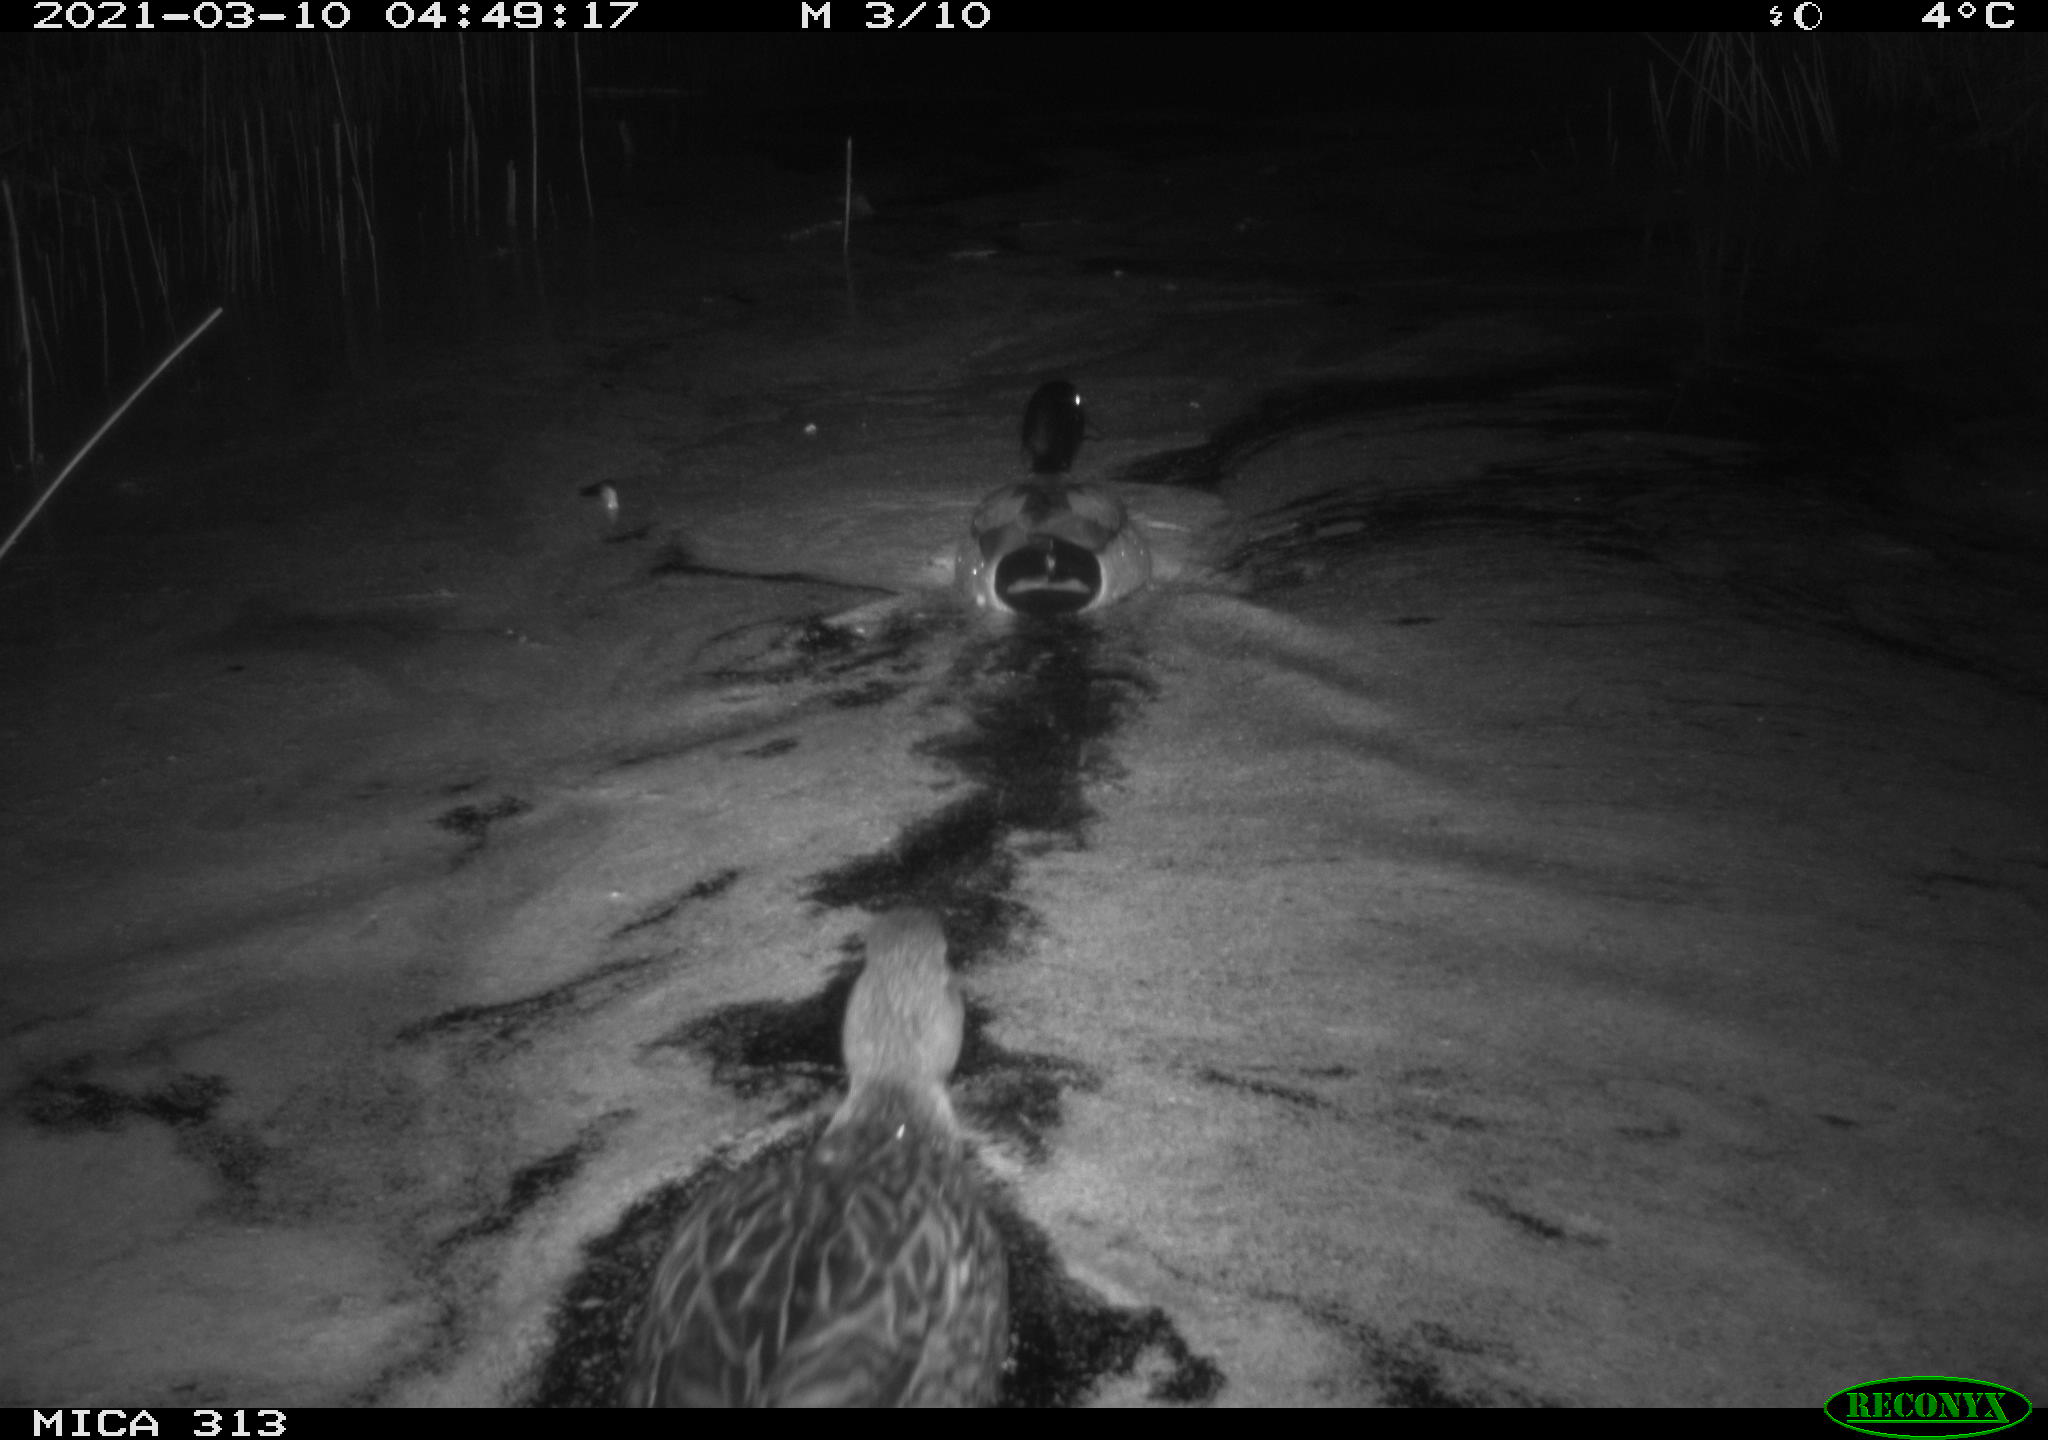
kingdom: Animalia
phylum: Chordata
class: Aves
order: Anseriformes
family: Anatidae
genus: Anas
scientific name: Anas platyrhynchos
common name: Mallard
